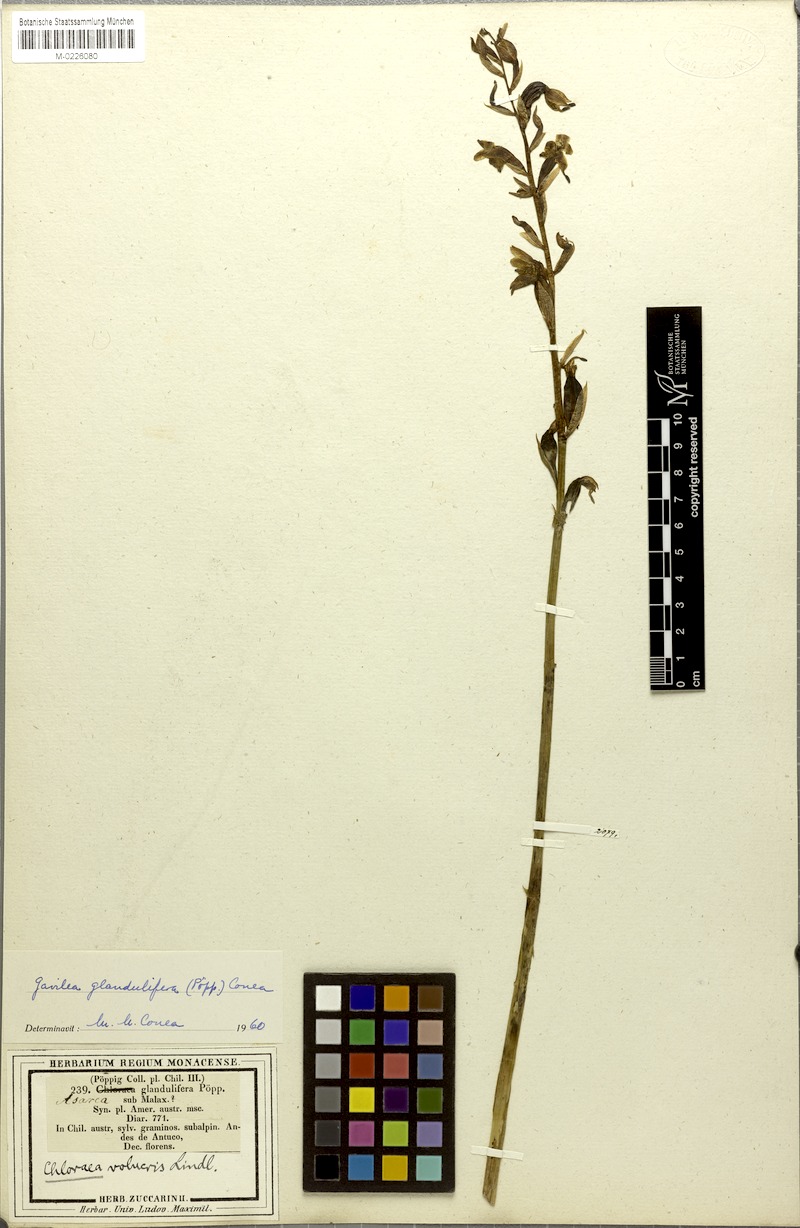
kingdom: Plantae
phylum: Tracheophyta
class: Liliopsida
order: Asparagales
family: Orchidaceae
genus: Gavilea
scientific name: Gavilea glandulifera
